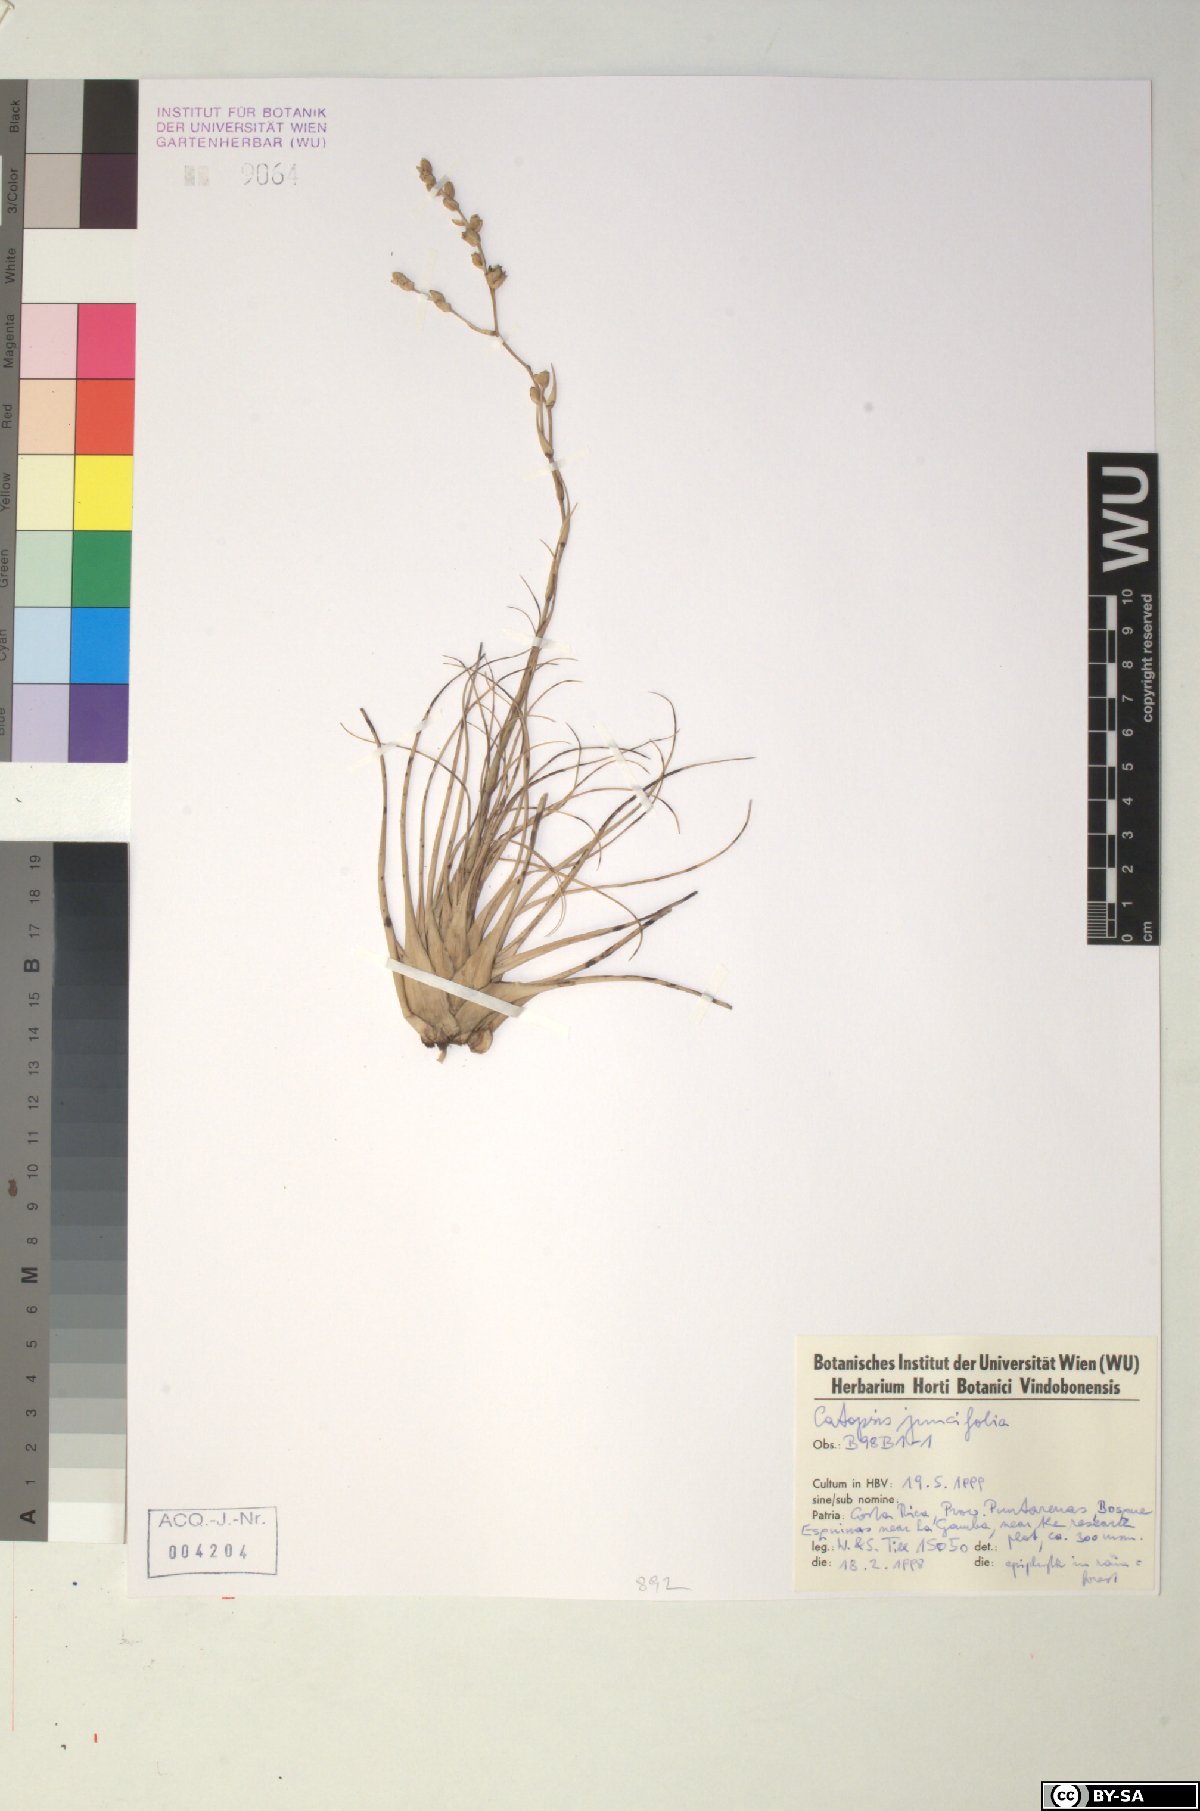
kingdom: Plantae
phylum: Tracheophyta
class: Liliopsida
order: Poales
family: Bromeliaceae
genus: Catopsis
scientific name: Catopsis juncifolia
